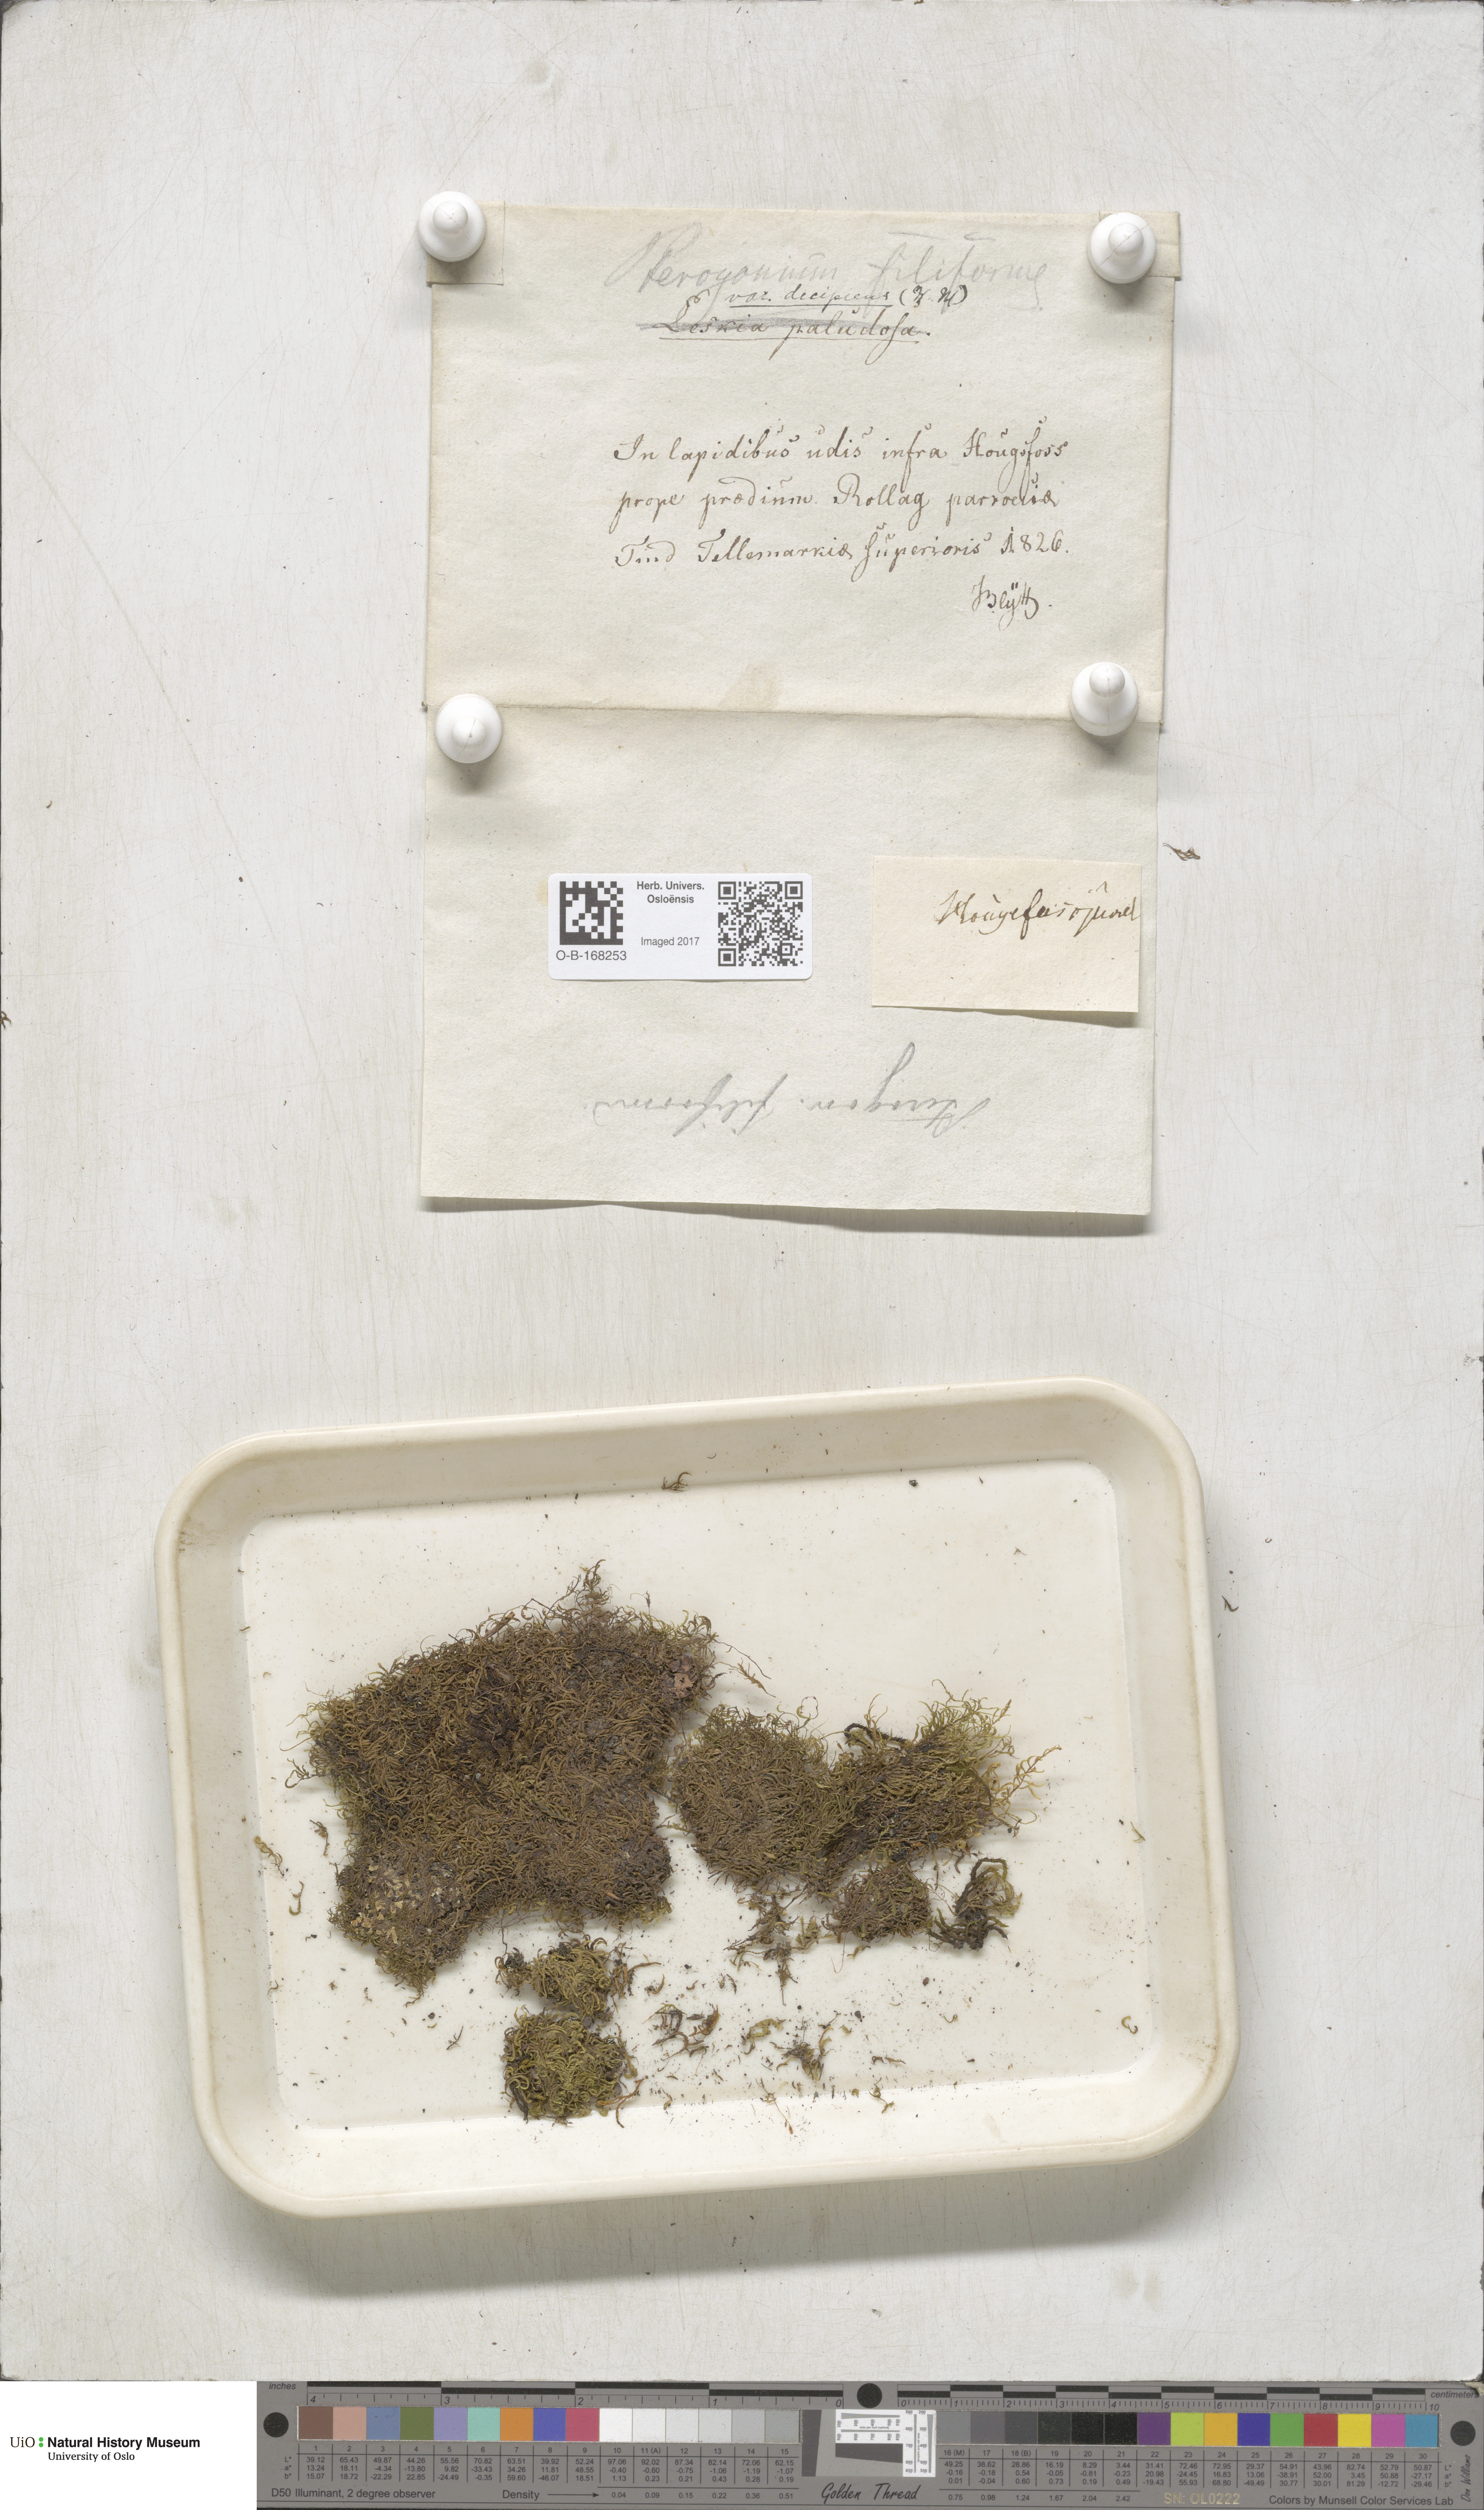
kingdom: Plantae
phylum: Bryophyta
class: Bryopsida
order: Hypnales
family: Pterigynandraceae
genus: Pterigynandrum
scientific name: Pterigynandrum filiforme
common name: Capillary wing moss
